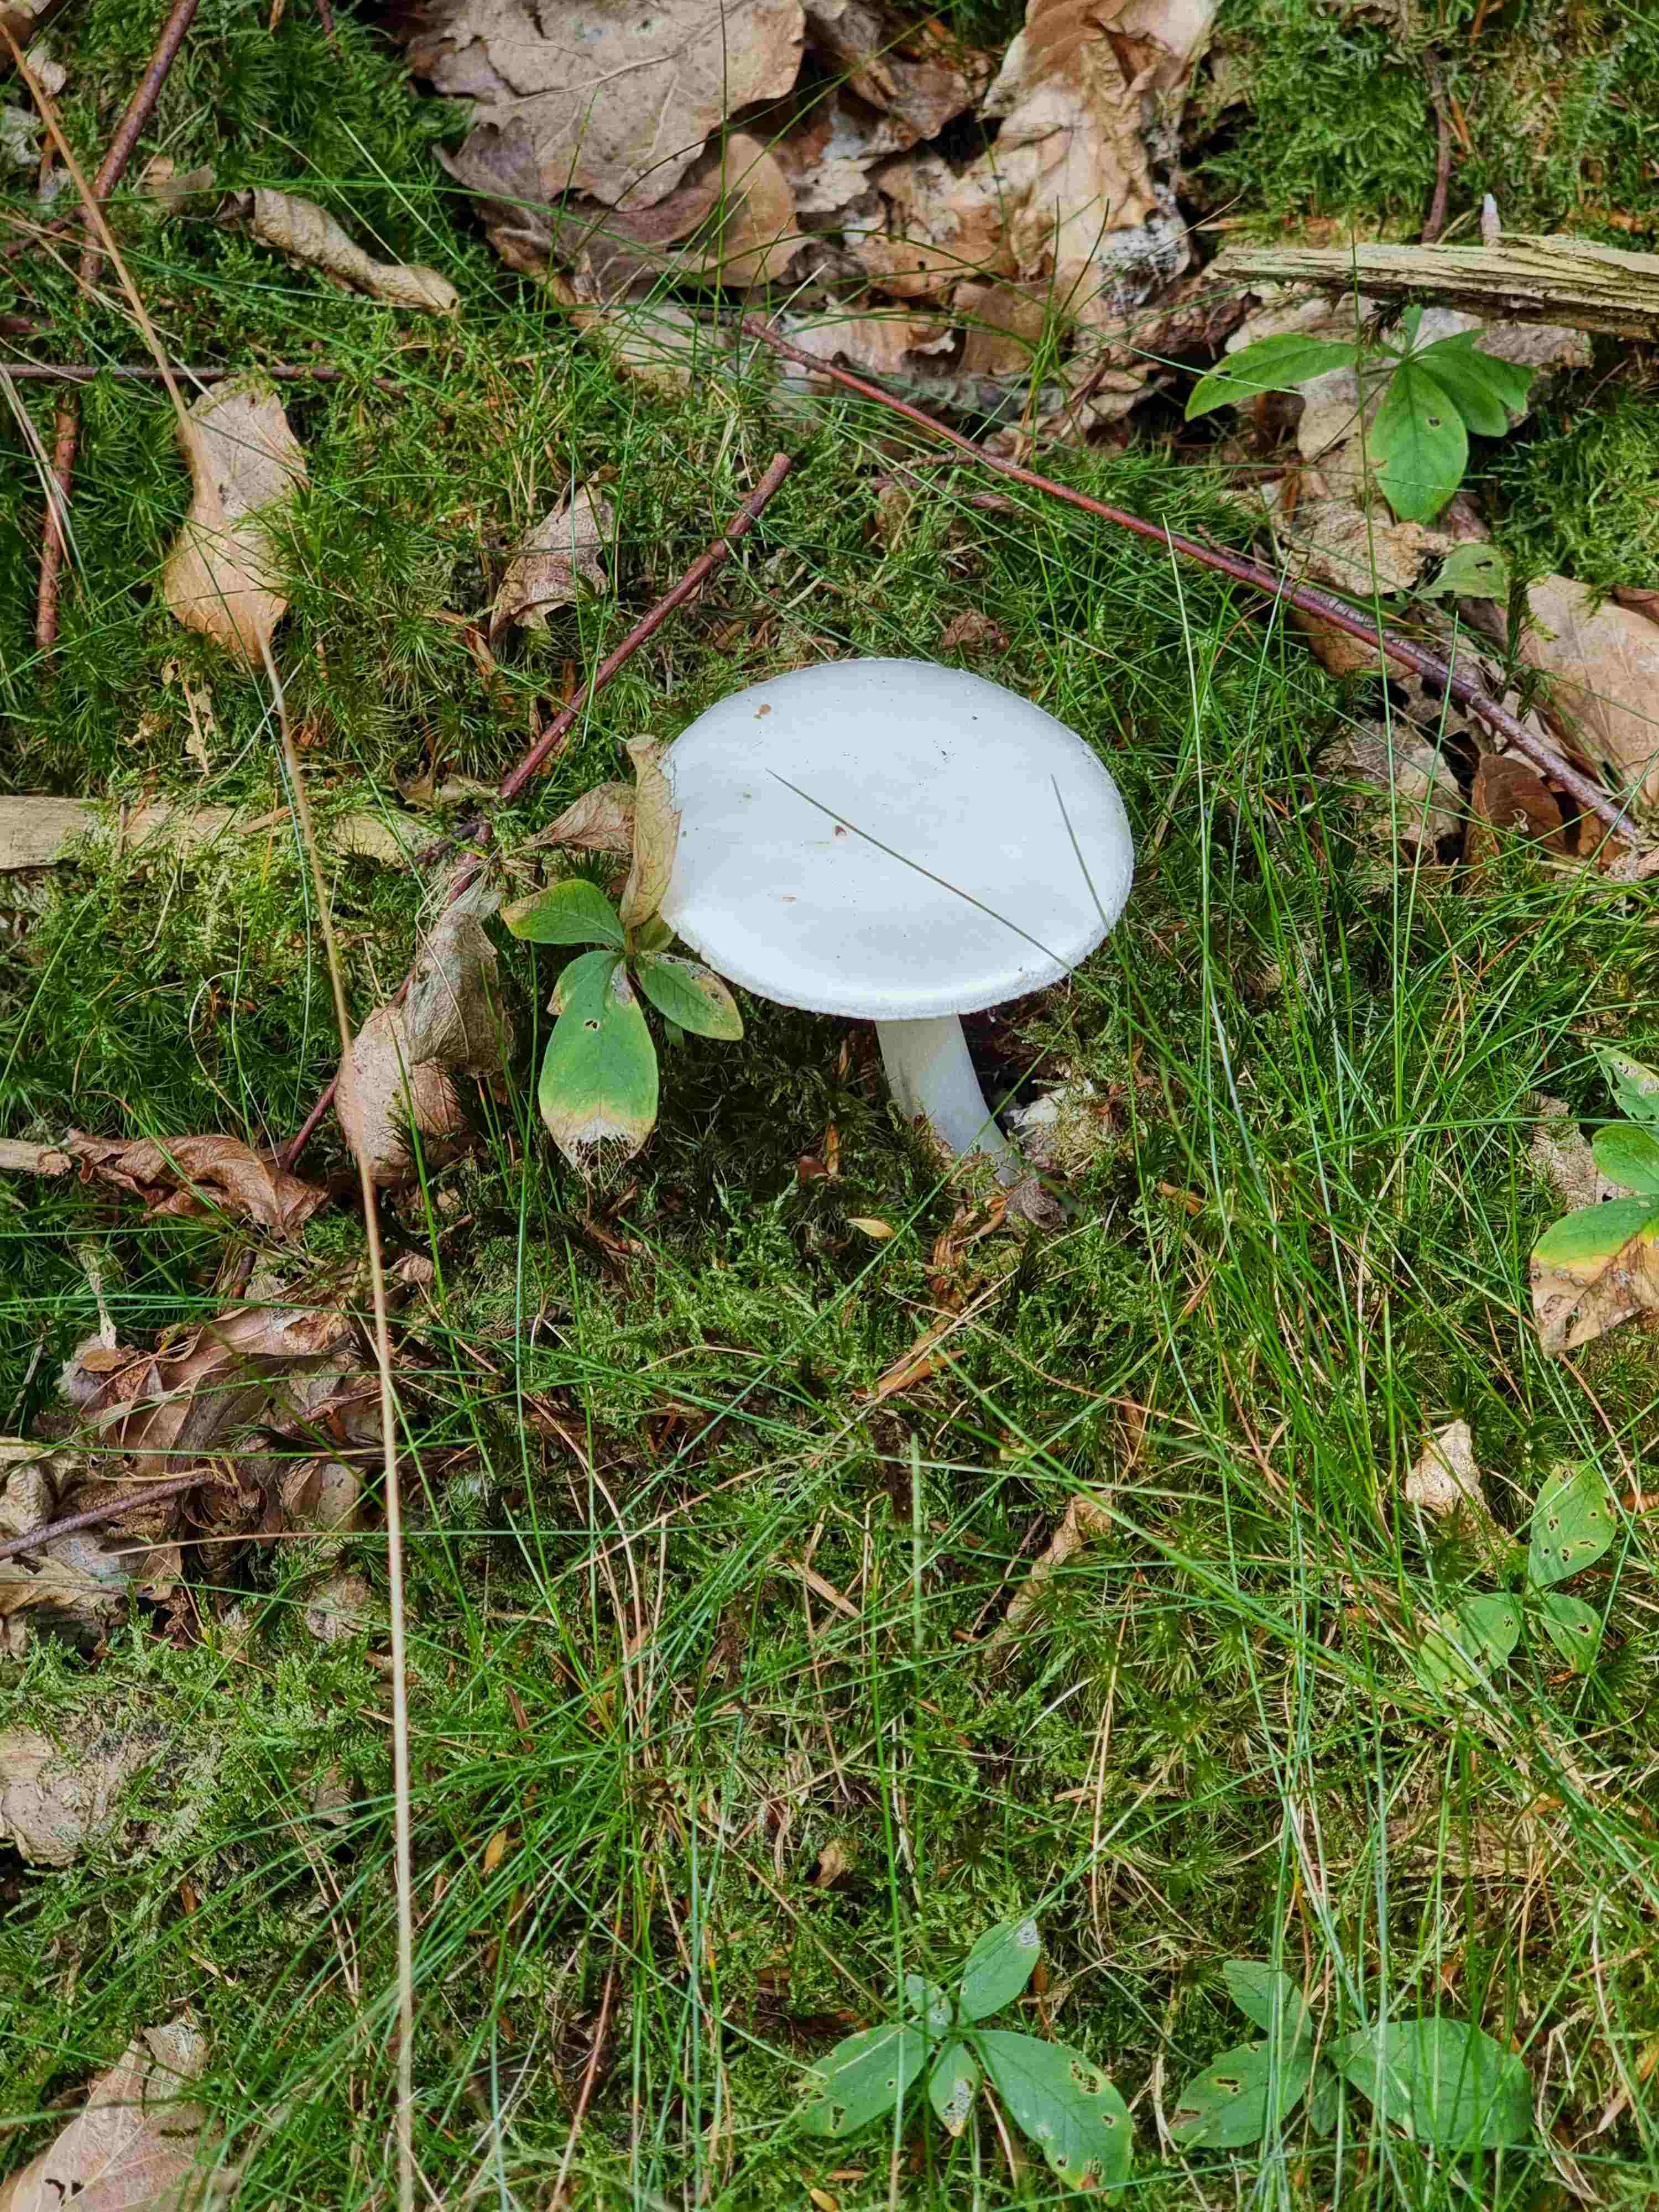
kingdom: Fungi
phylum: Basidiomycota
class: Agaricomycetes
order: Agaricales
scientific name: Agaricales
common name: champignonordenen
